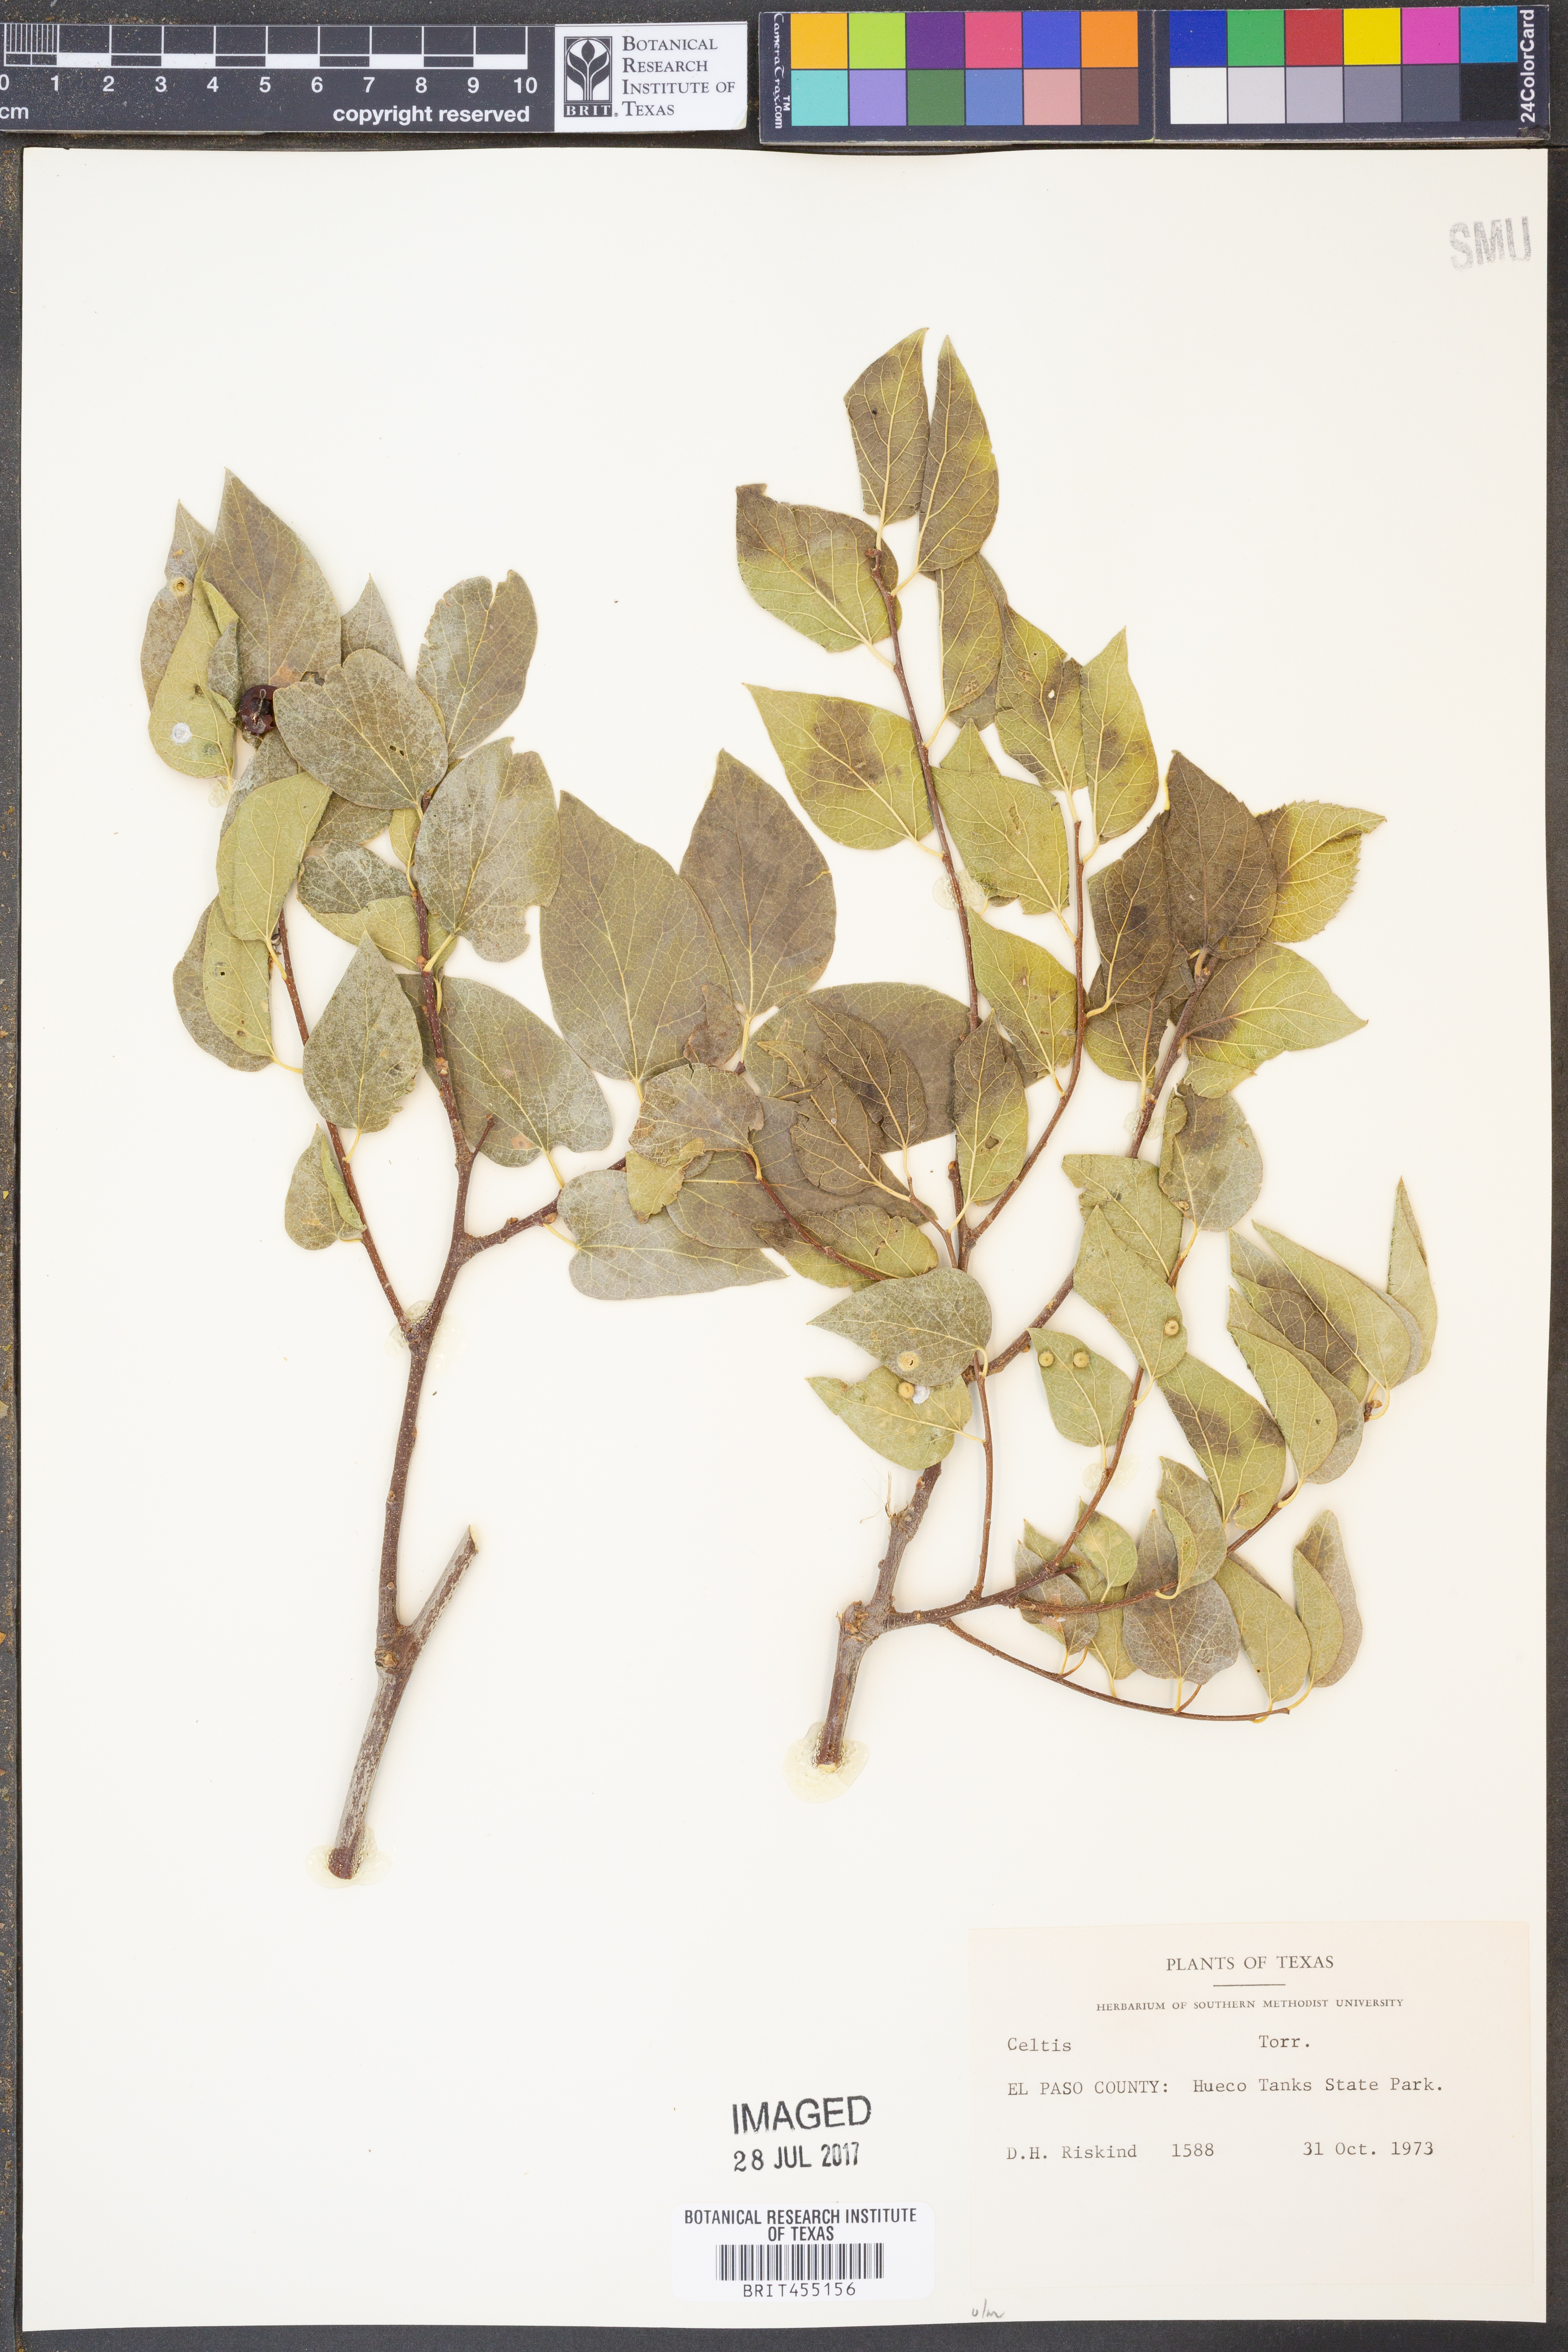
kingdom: Plantae
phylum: Tracheophyta
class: Magnoliopsida
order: Rosales
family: Cannabaceae
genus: Celtis
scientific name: Celtis
